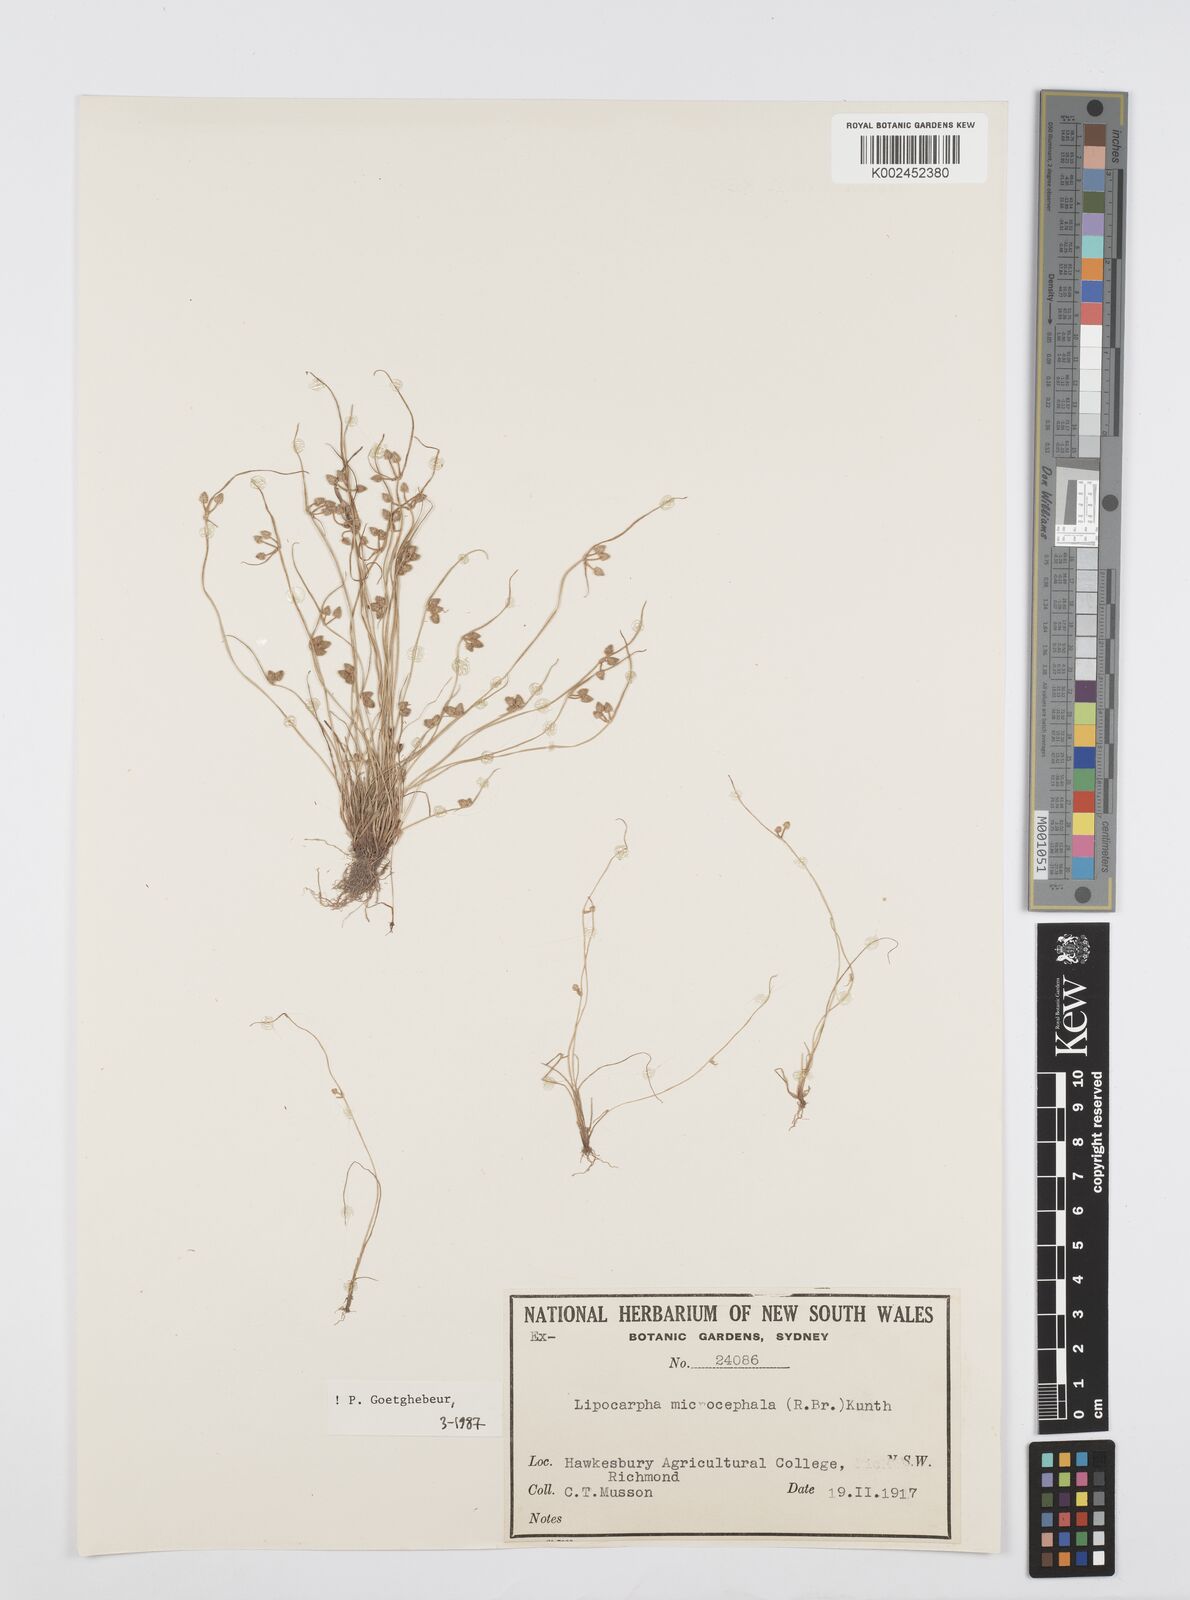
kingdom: Plantae
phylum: Tracheophyta
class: Liliopsida
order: Poales
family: Cyperaceae
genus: Cyperus
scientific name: Cyperus microcephalus
